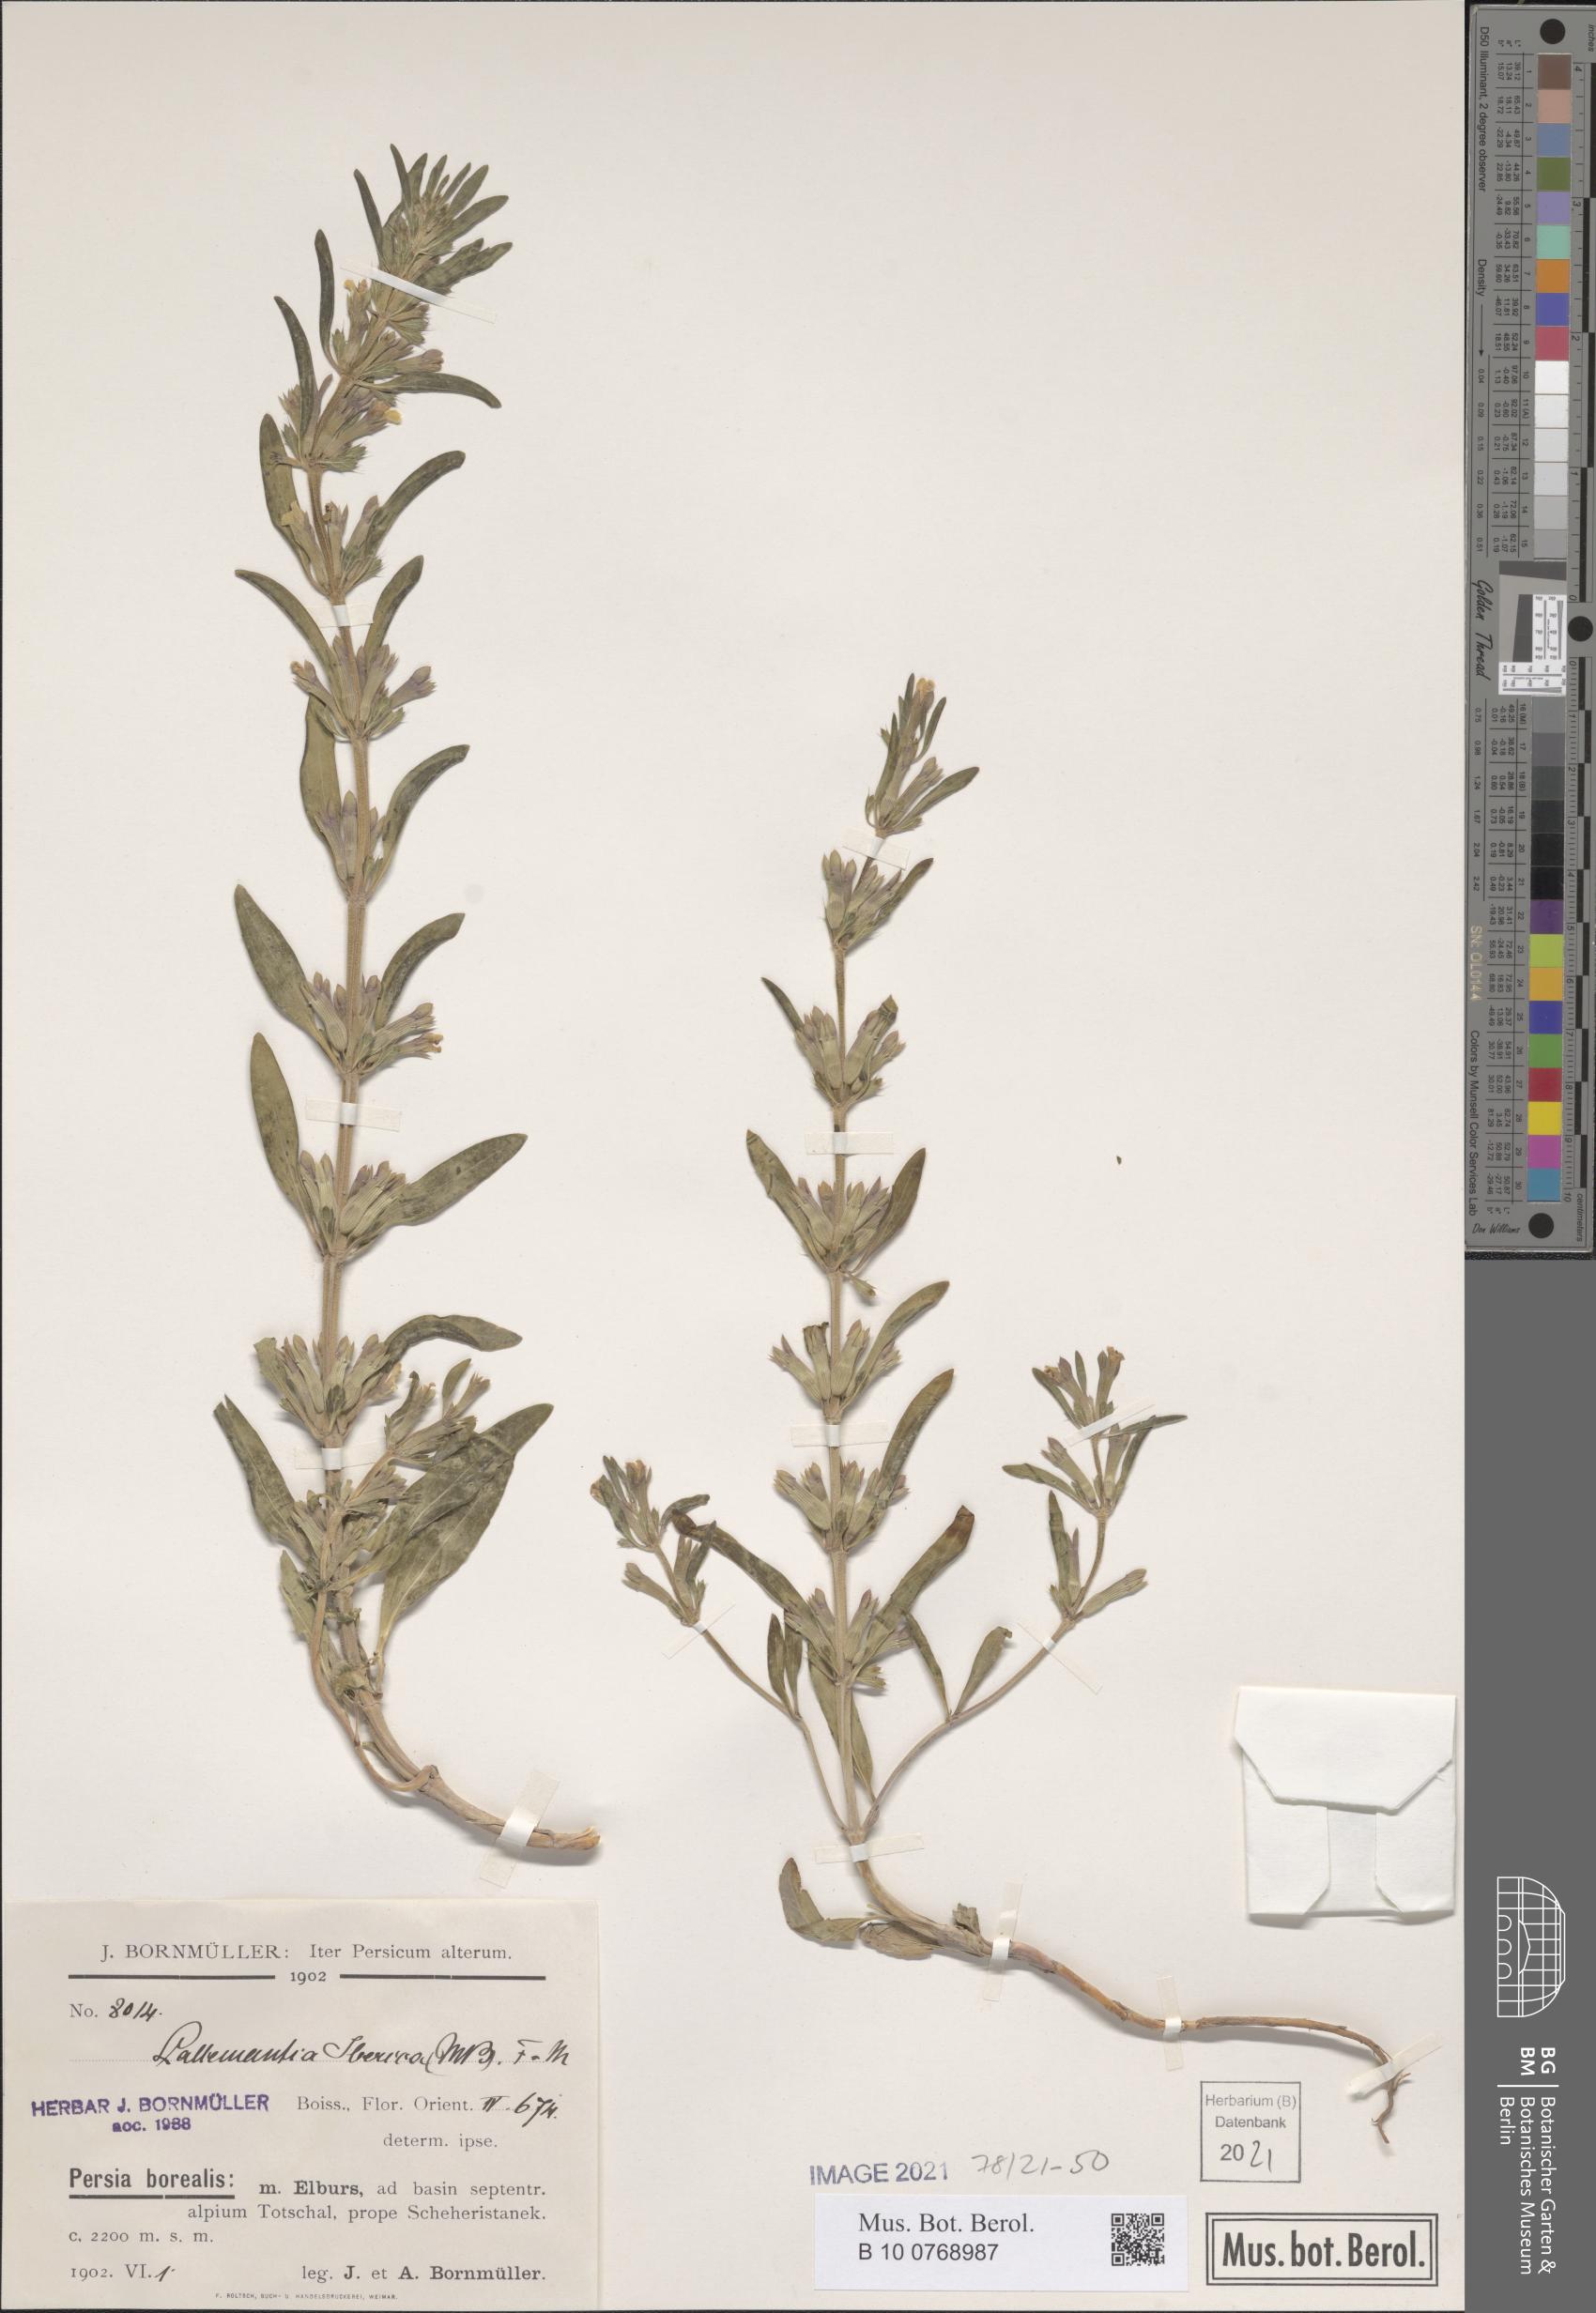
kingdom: Plantae
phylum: Tracheophyta
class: Magnoliopsida
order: Lamiales
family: Lamiaceae
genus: Lallemantia
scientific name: Lallemantia iberica
